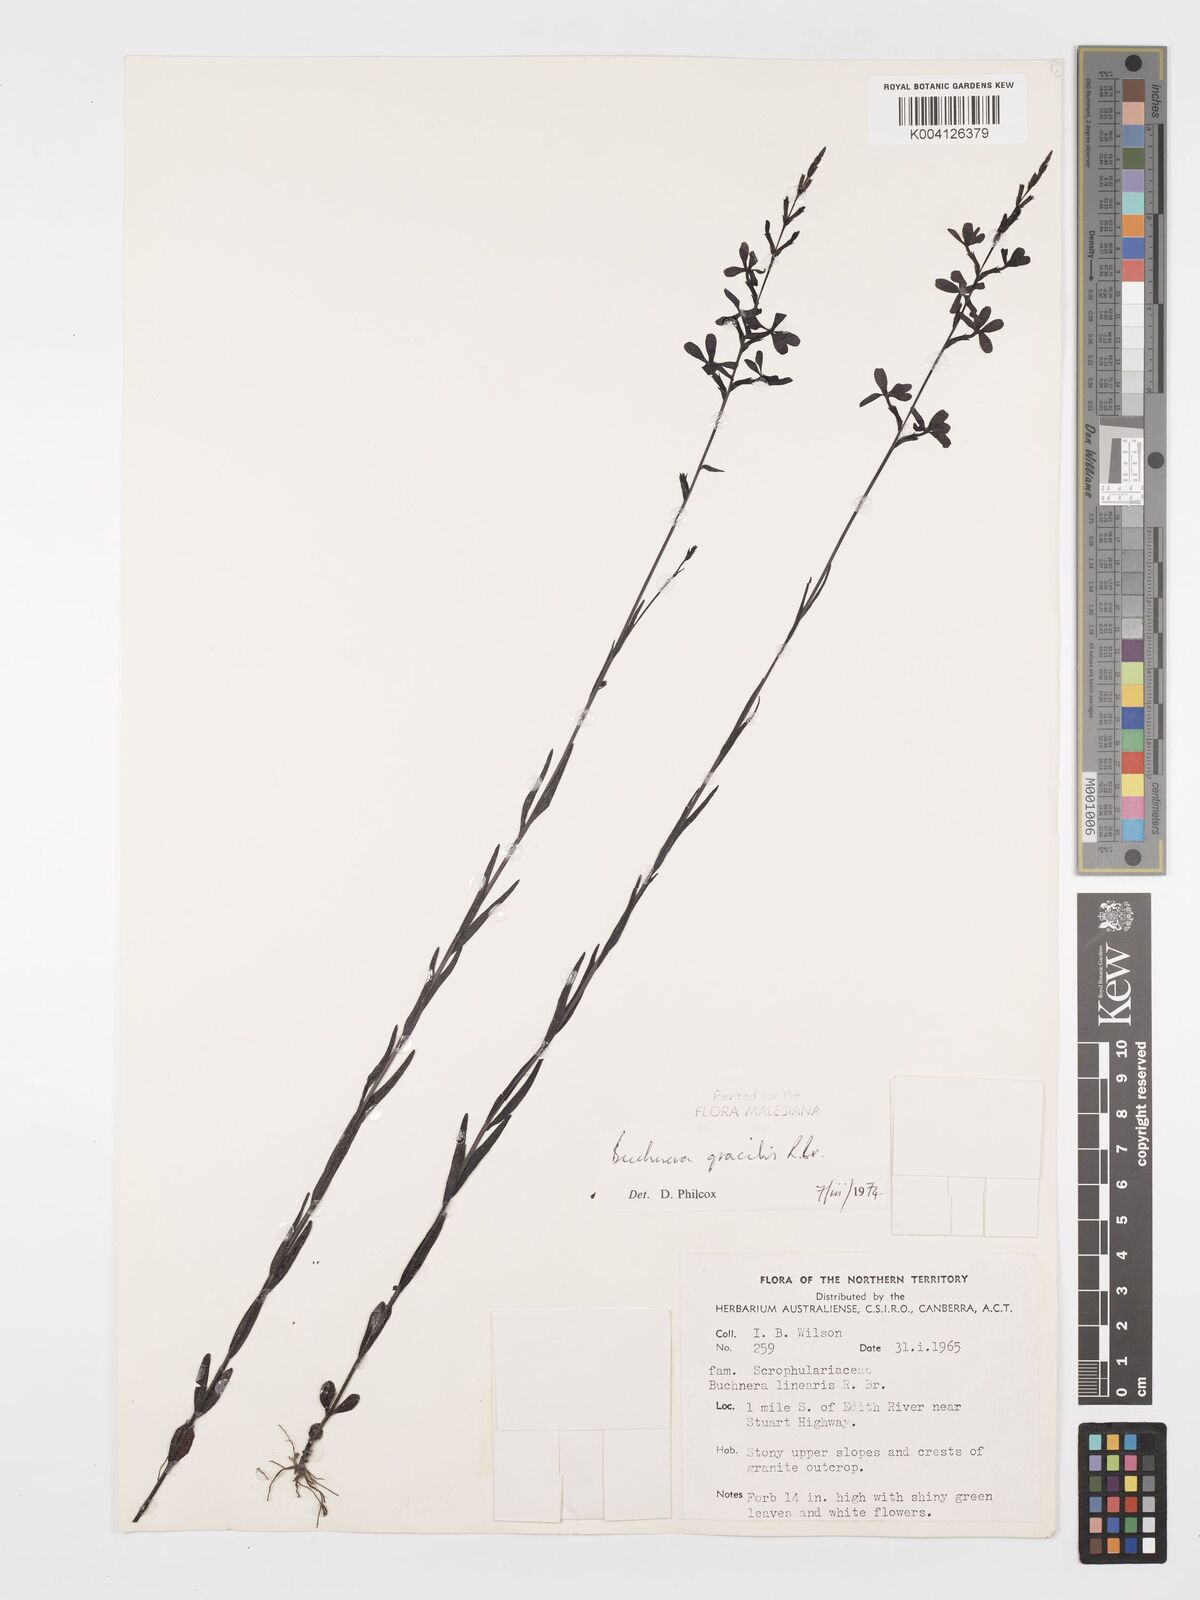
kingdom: Plantae
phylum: Tracheophyta
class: Magnoliopsida
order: Lamiales
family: Orobanchaceae
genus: Buchnera
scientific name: Buchnera gracilis
